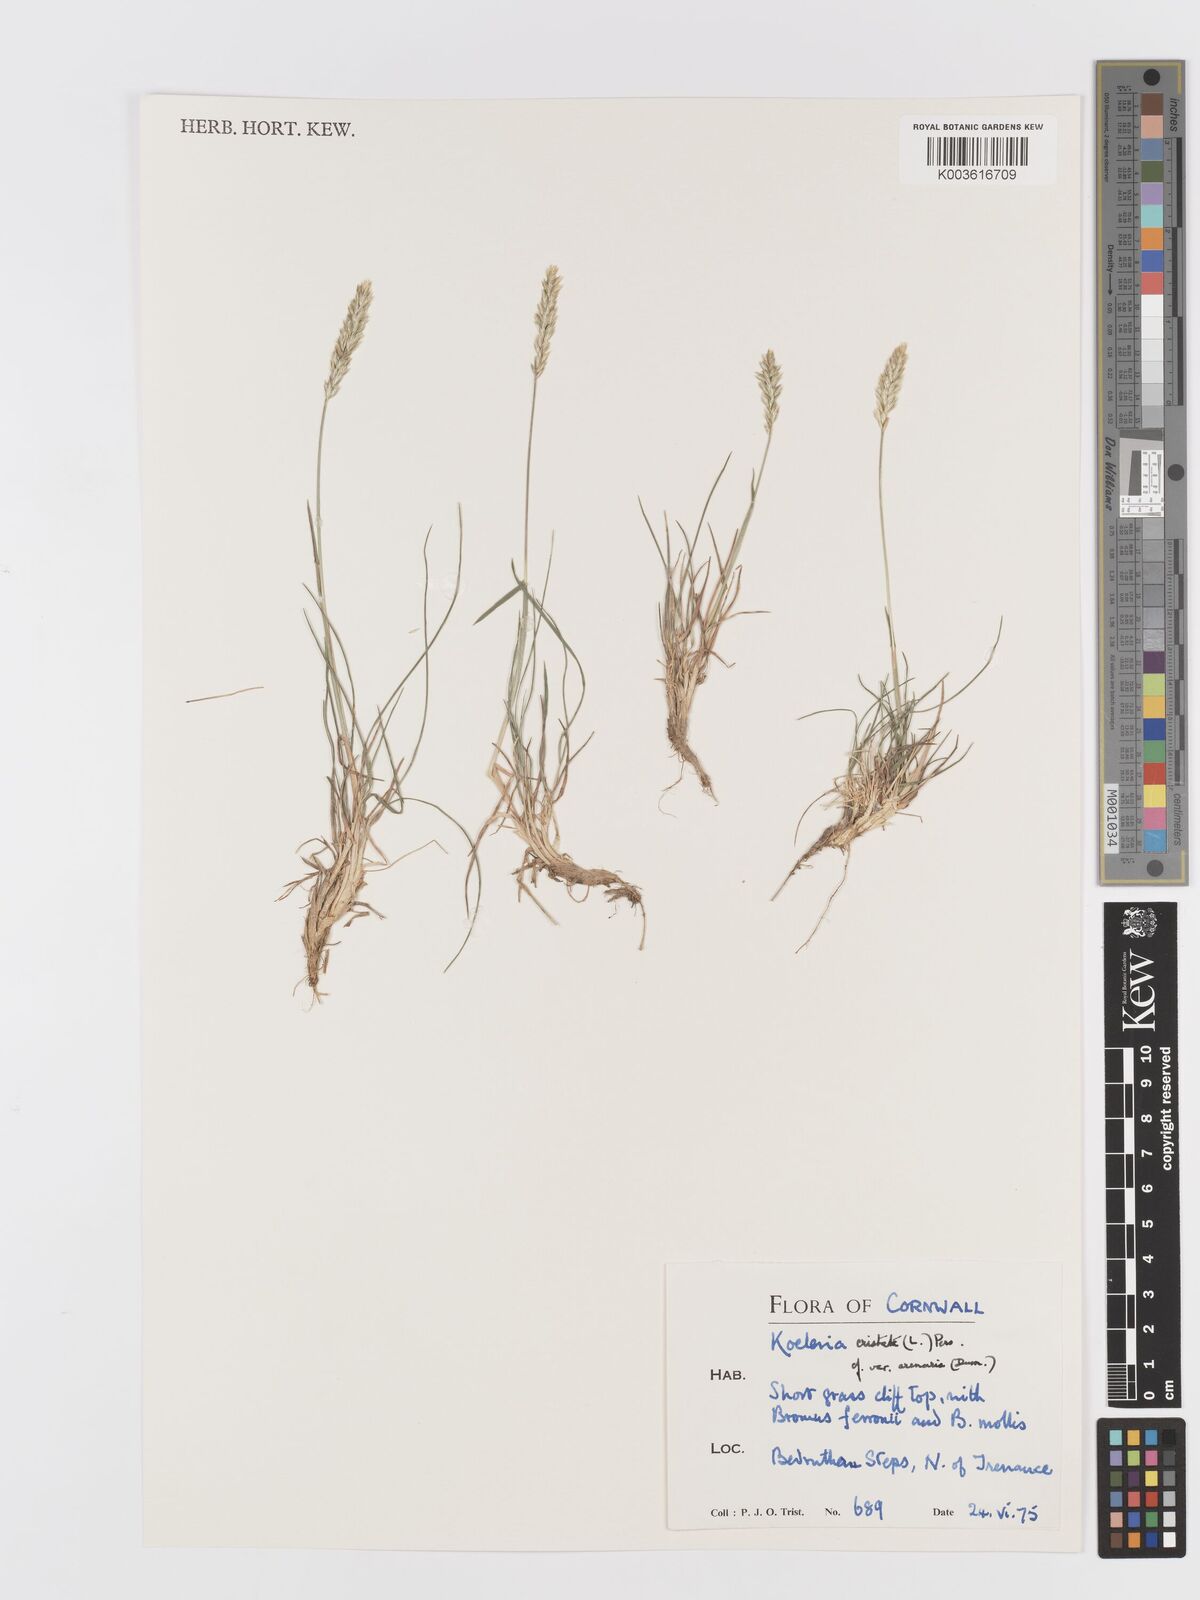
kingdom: Plantae
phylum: Tracheophyta
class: Liliopsida
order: Poales
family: Poaceae
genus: Koeleria
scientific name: Koeleria
